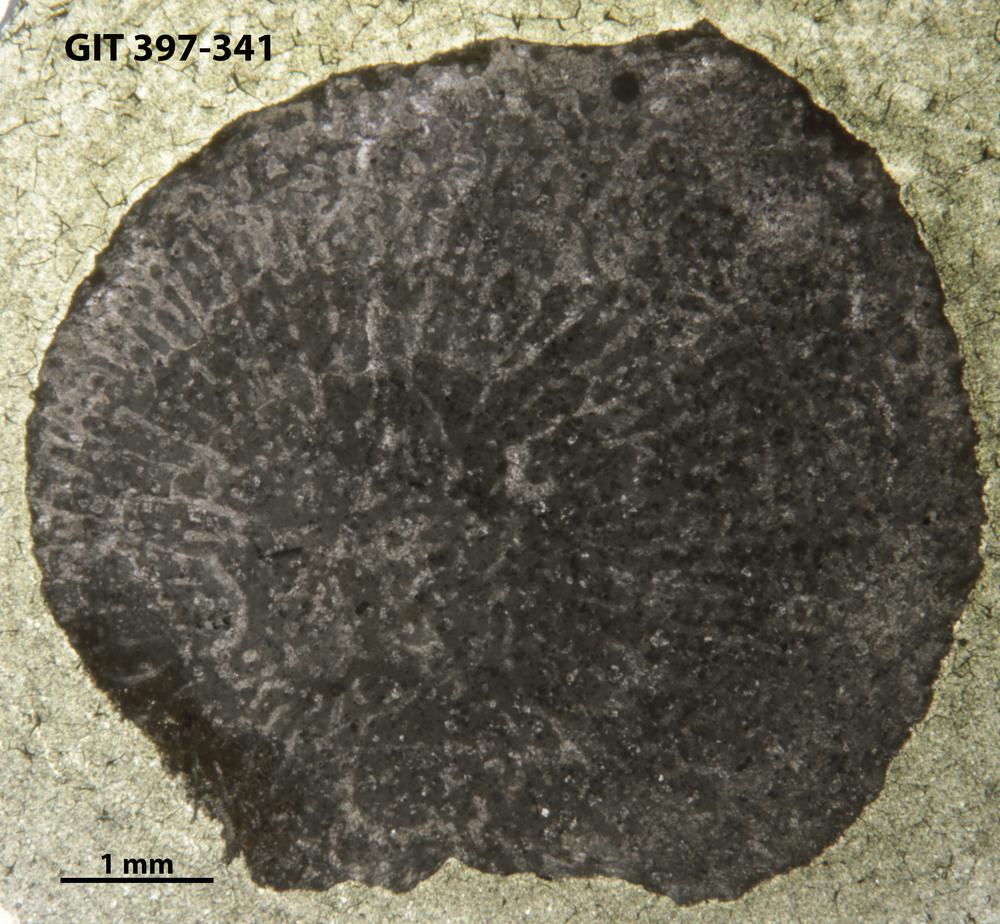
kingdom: Animalia
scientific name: Animalia
